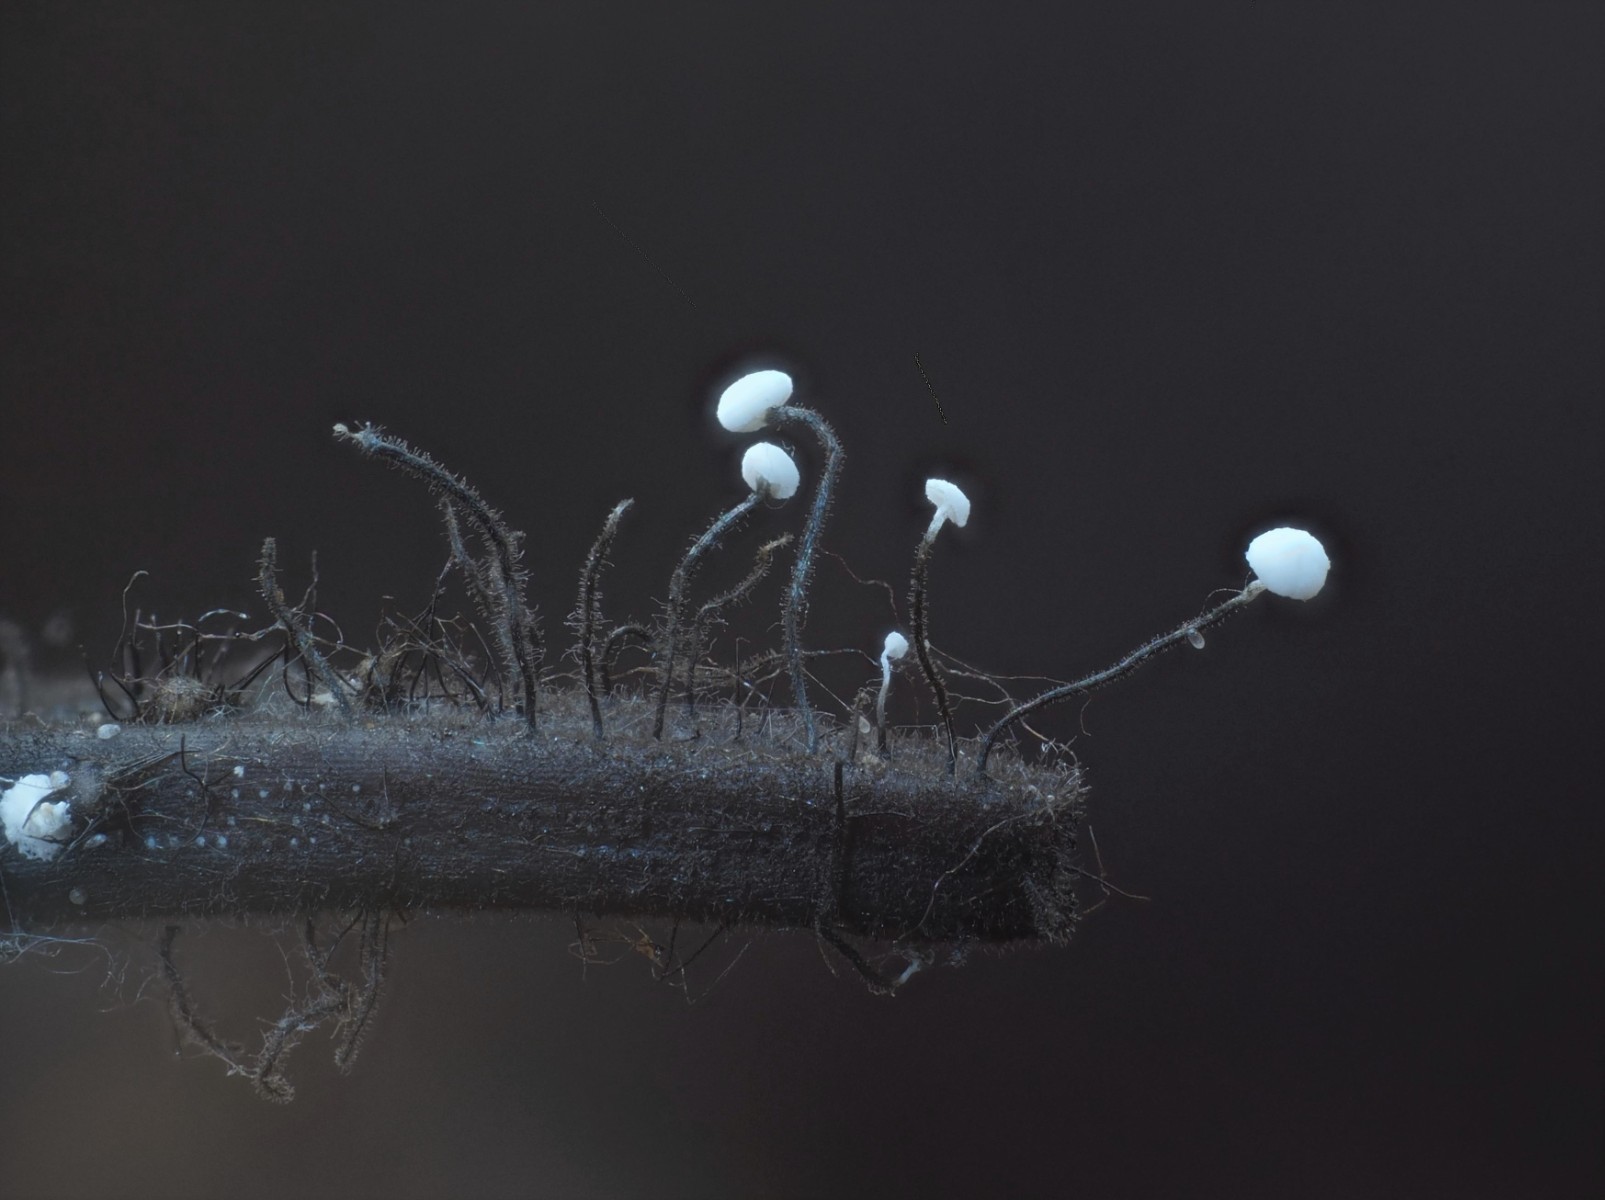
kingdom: Fungi
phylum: Ascomycota
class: Leotiomycetes
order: Helotiales
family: Gelatinodiscaceae
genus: Ombrophila
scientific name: Ombrophila juniperinella
